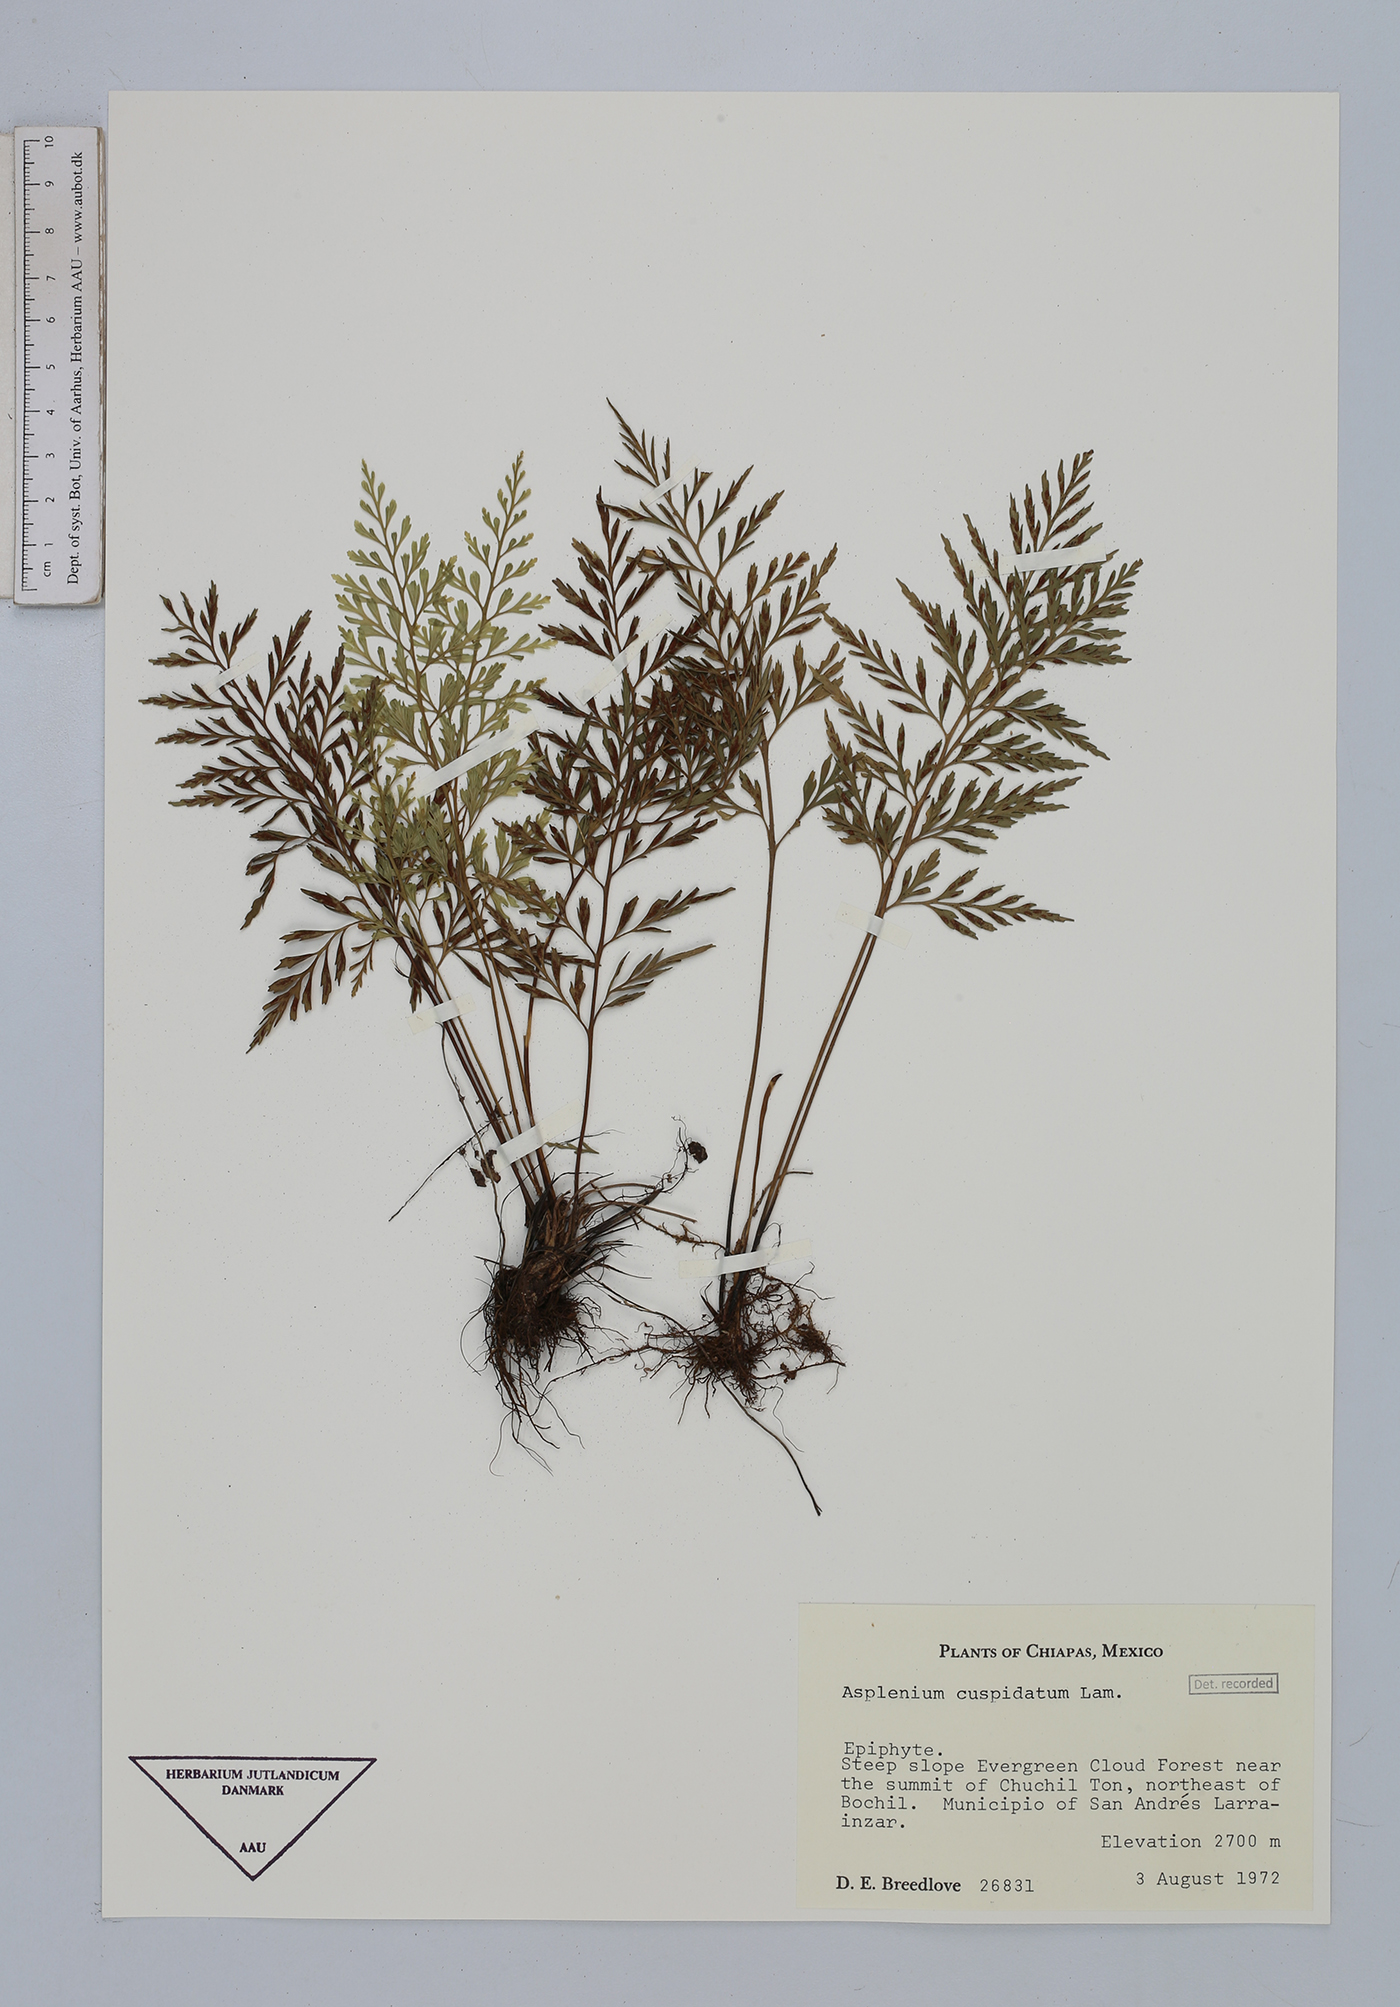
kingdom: Plantae
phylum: Tracheophyta
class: Polypodiopsida
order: Polypodiales
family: Aspleniaceae
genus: Asplenium
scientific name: Asplenium cuspidatum
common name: Eared spleenwort
